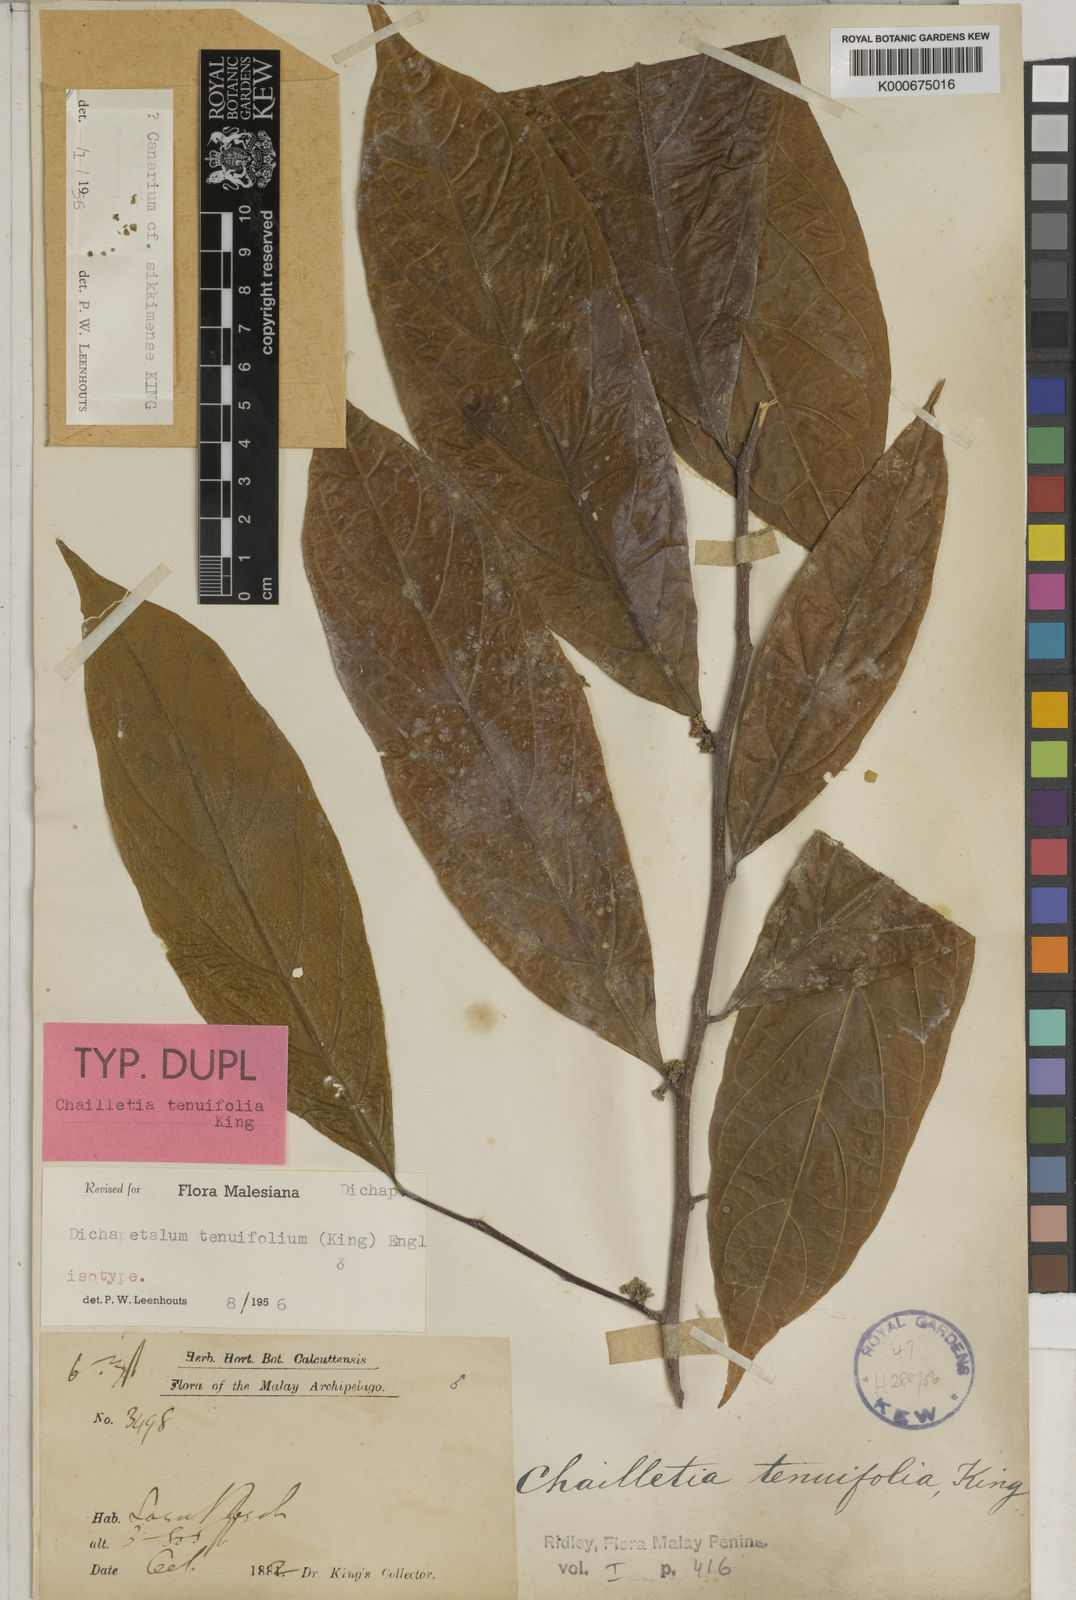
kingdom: Plantae
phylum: Tracheophyta
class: Magnoliopsida
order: Malpighiales
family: Dichapetalaceae
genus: Dichapetalum
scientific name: Dichapetalum tenuifolium
